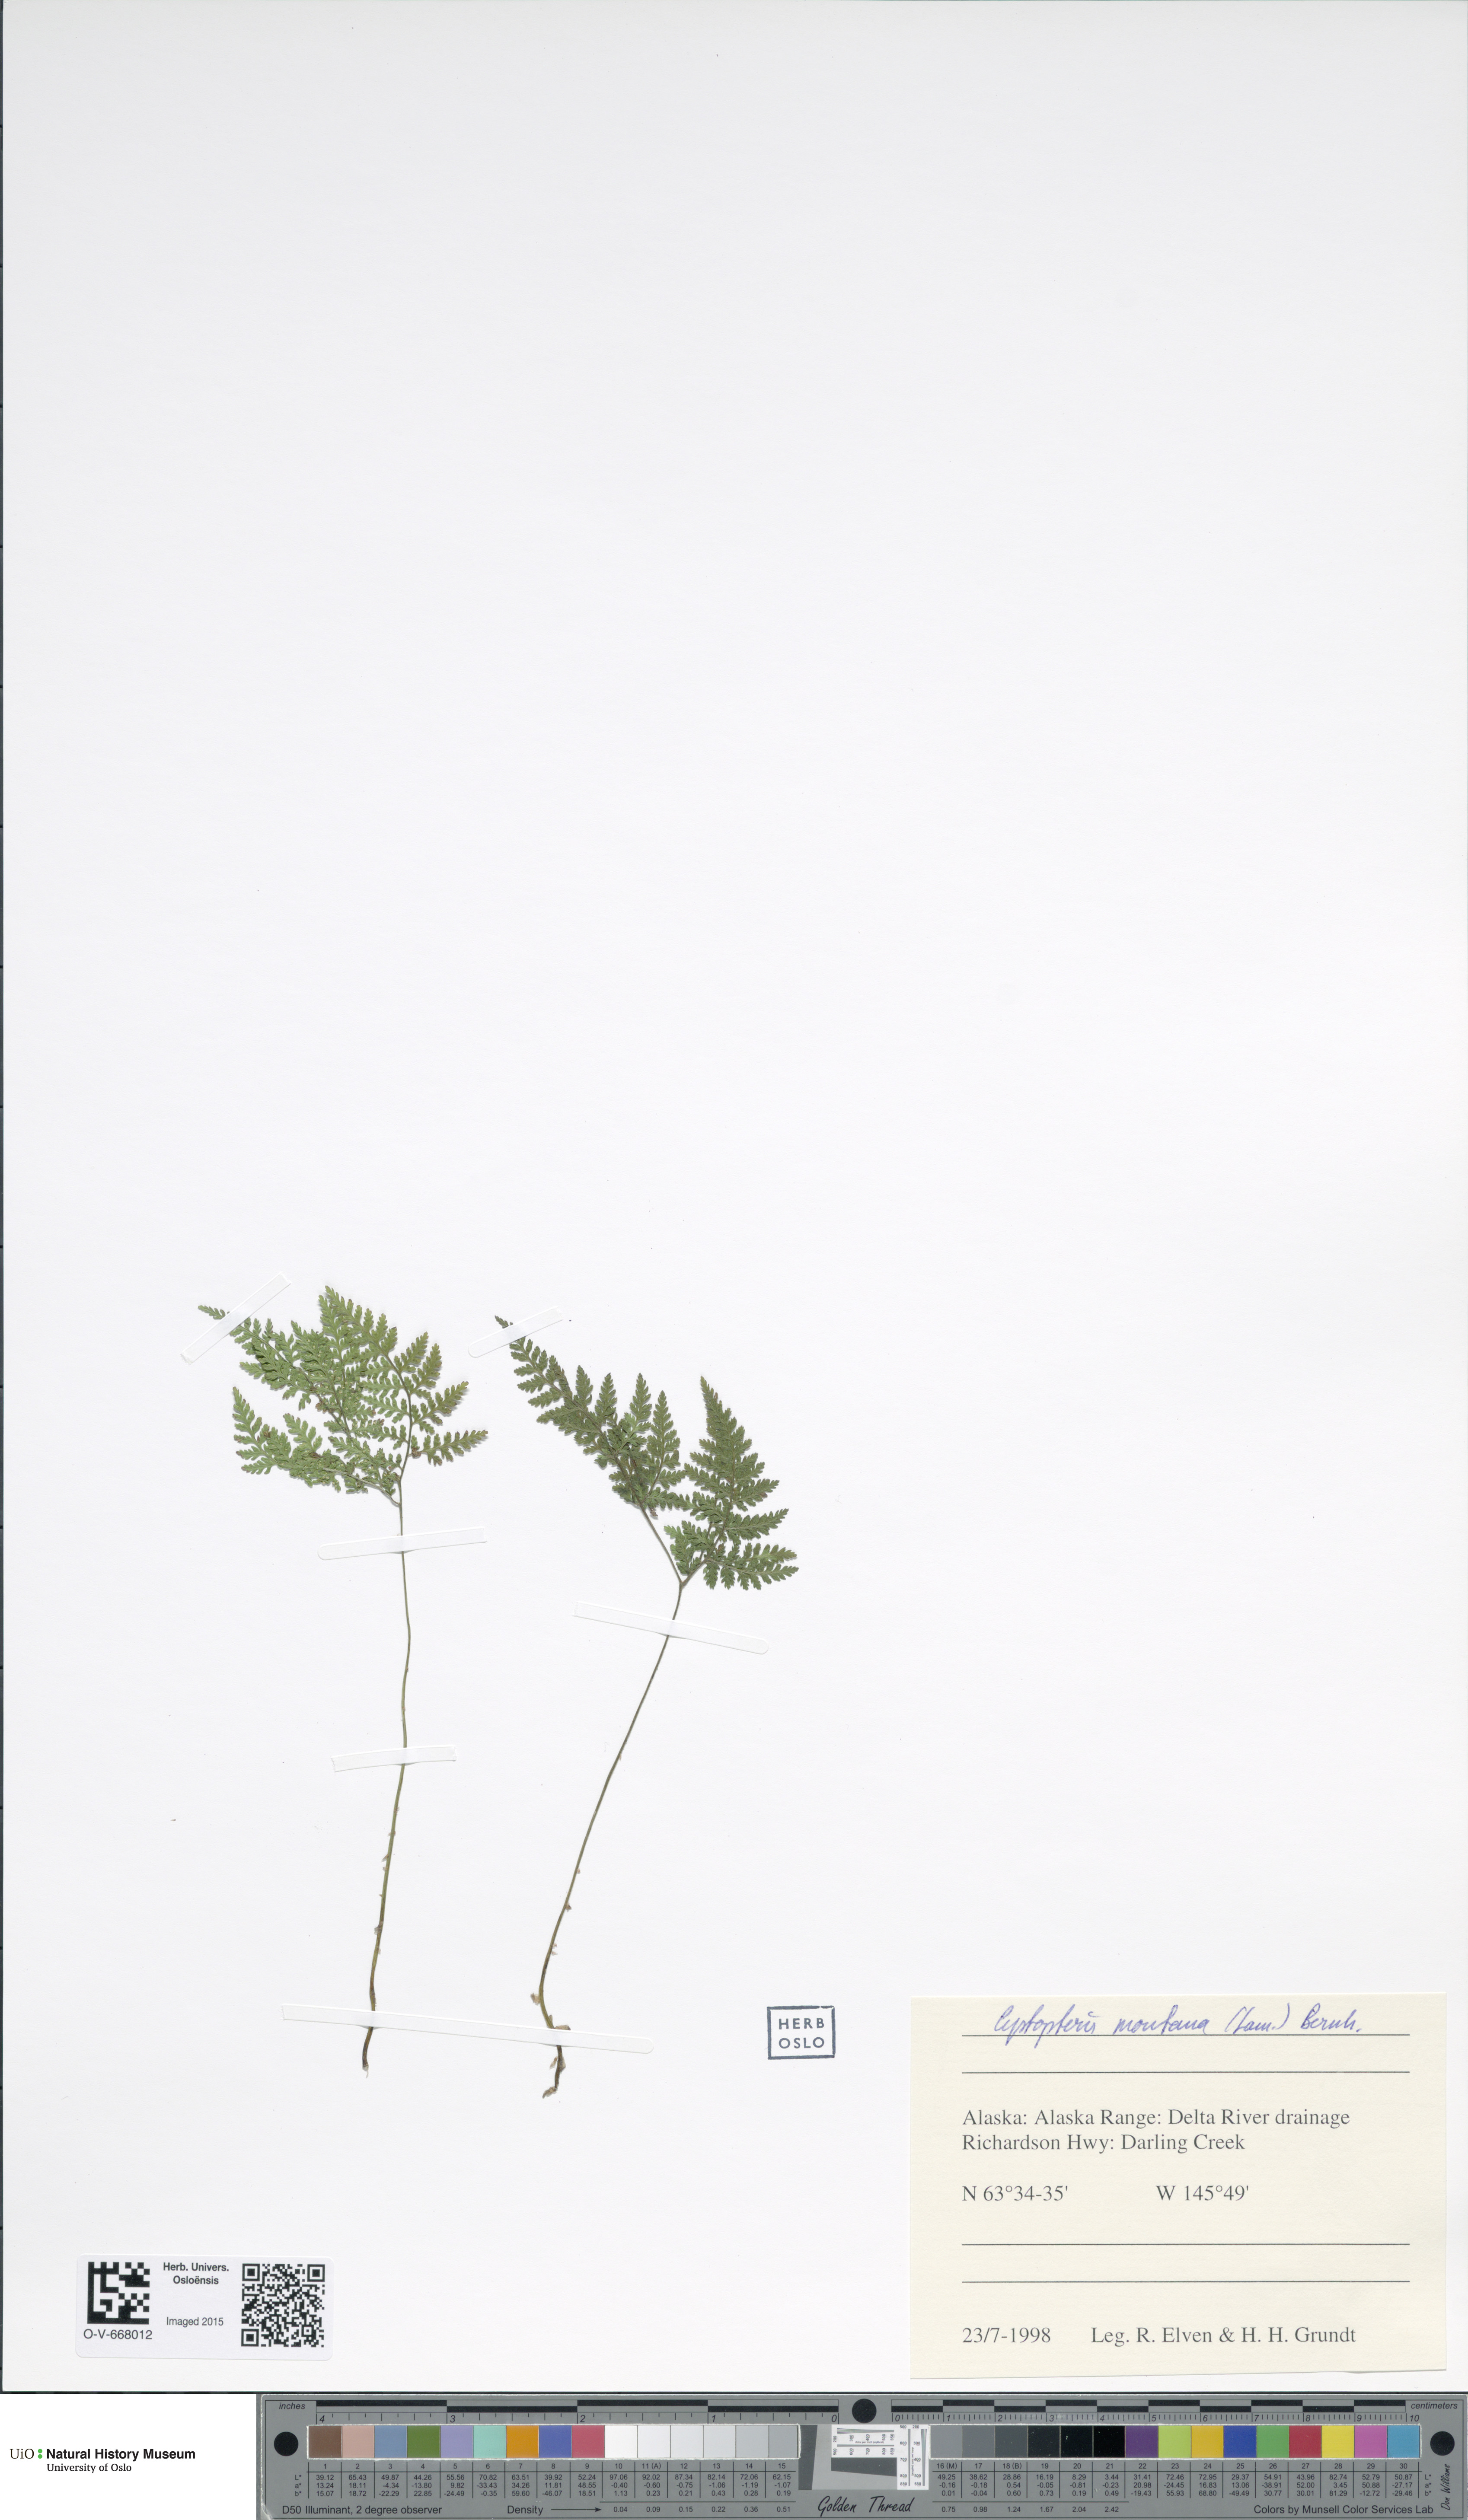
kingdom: Plantae
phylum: Tracheophyta
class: Polypodiopsida
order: Polypodiales
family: Cystopteridaceae
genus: Cystopteris
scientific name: Cystopteris montana
